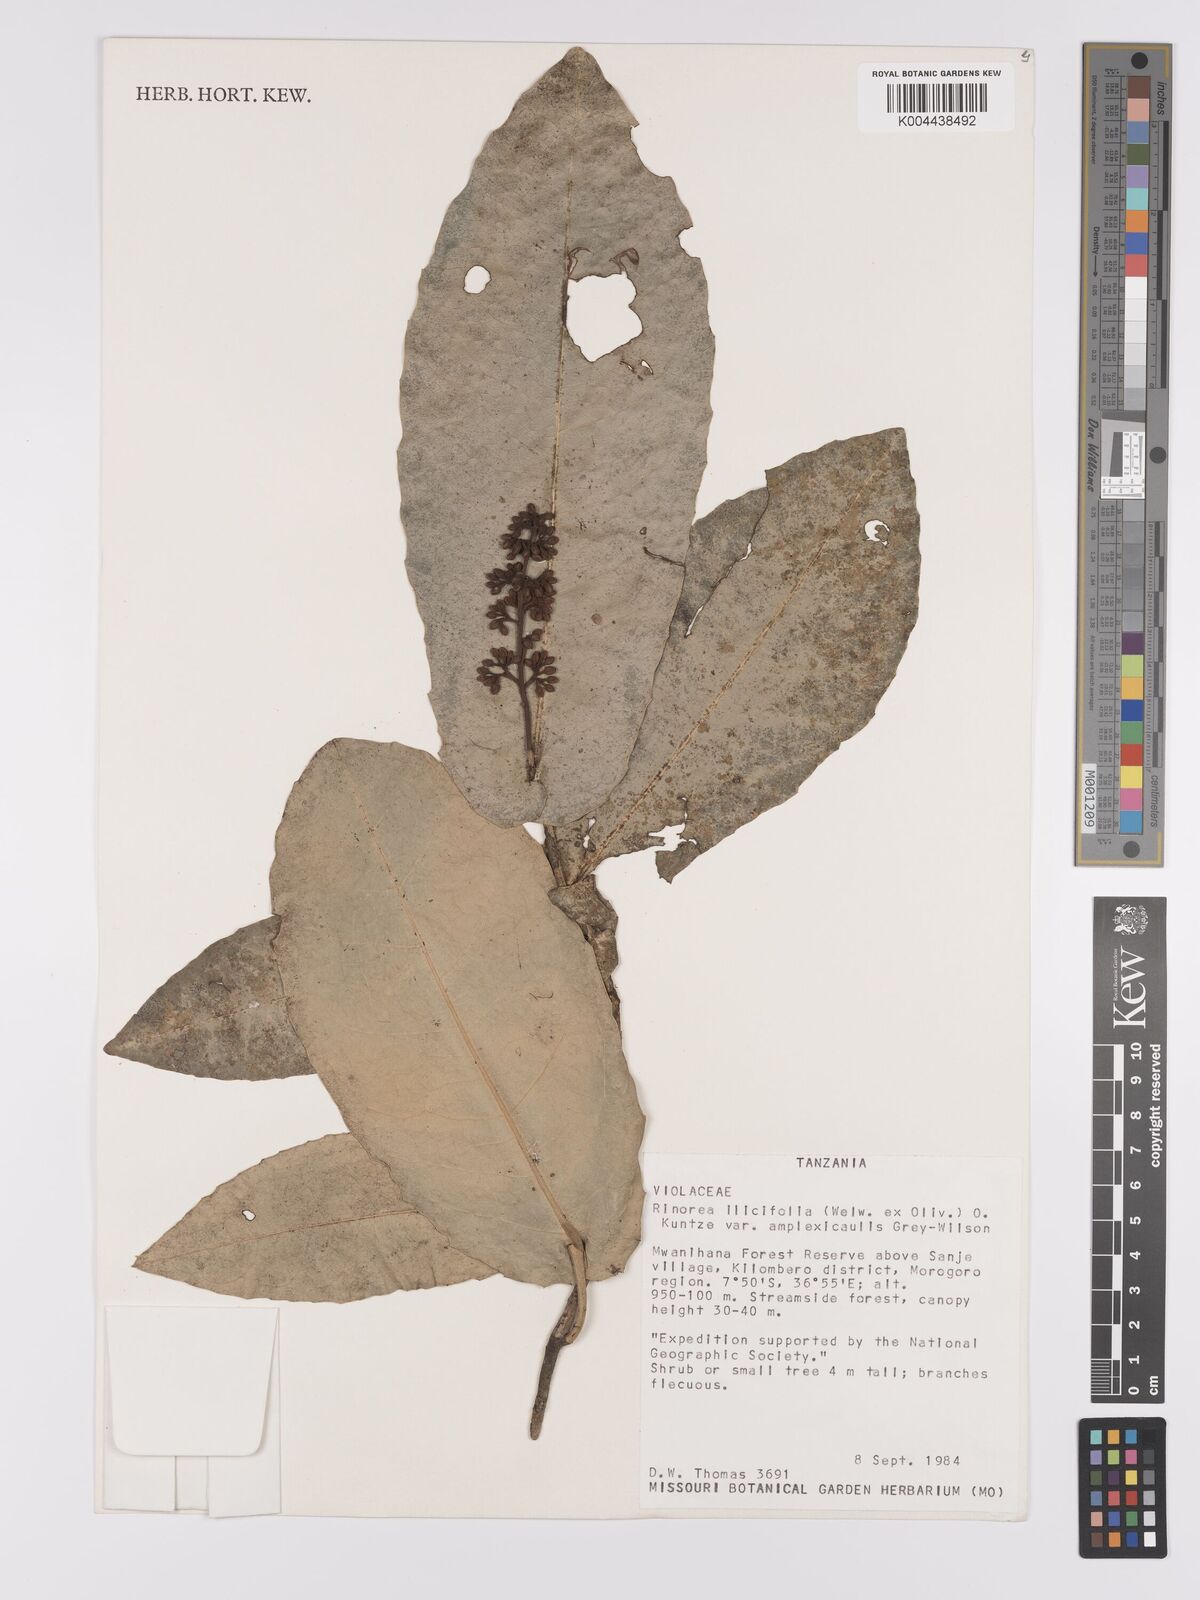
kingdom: Plantae
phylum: Tracheophyta
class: Magnoliopsida
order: Malpighiales
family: Violaceae
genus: Rinorea
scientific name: Rinorea ilicifolia
